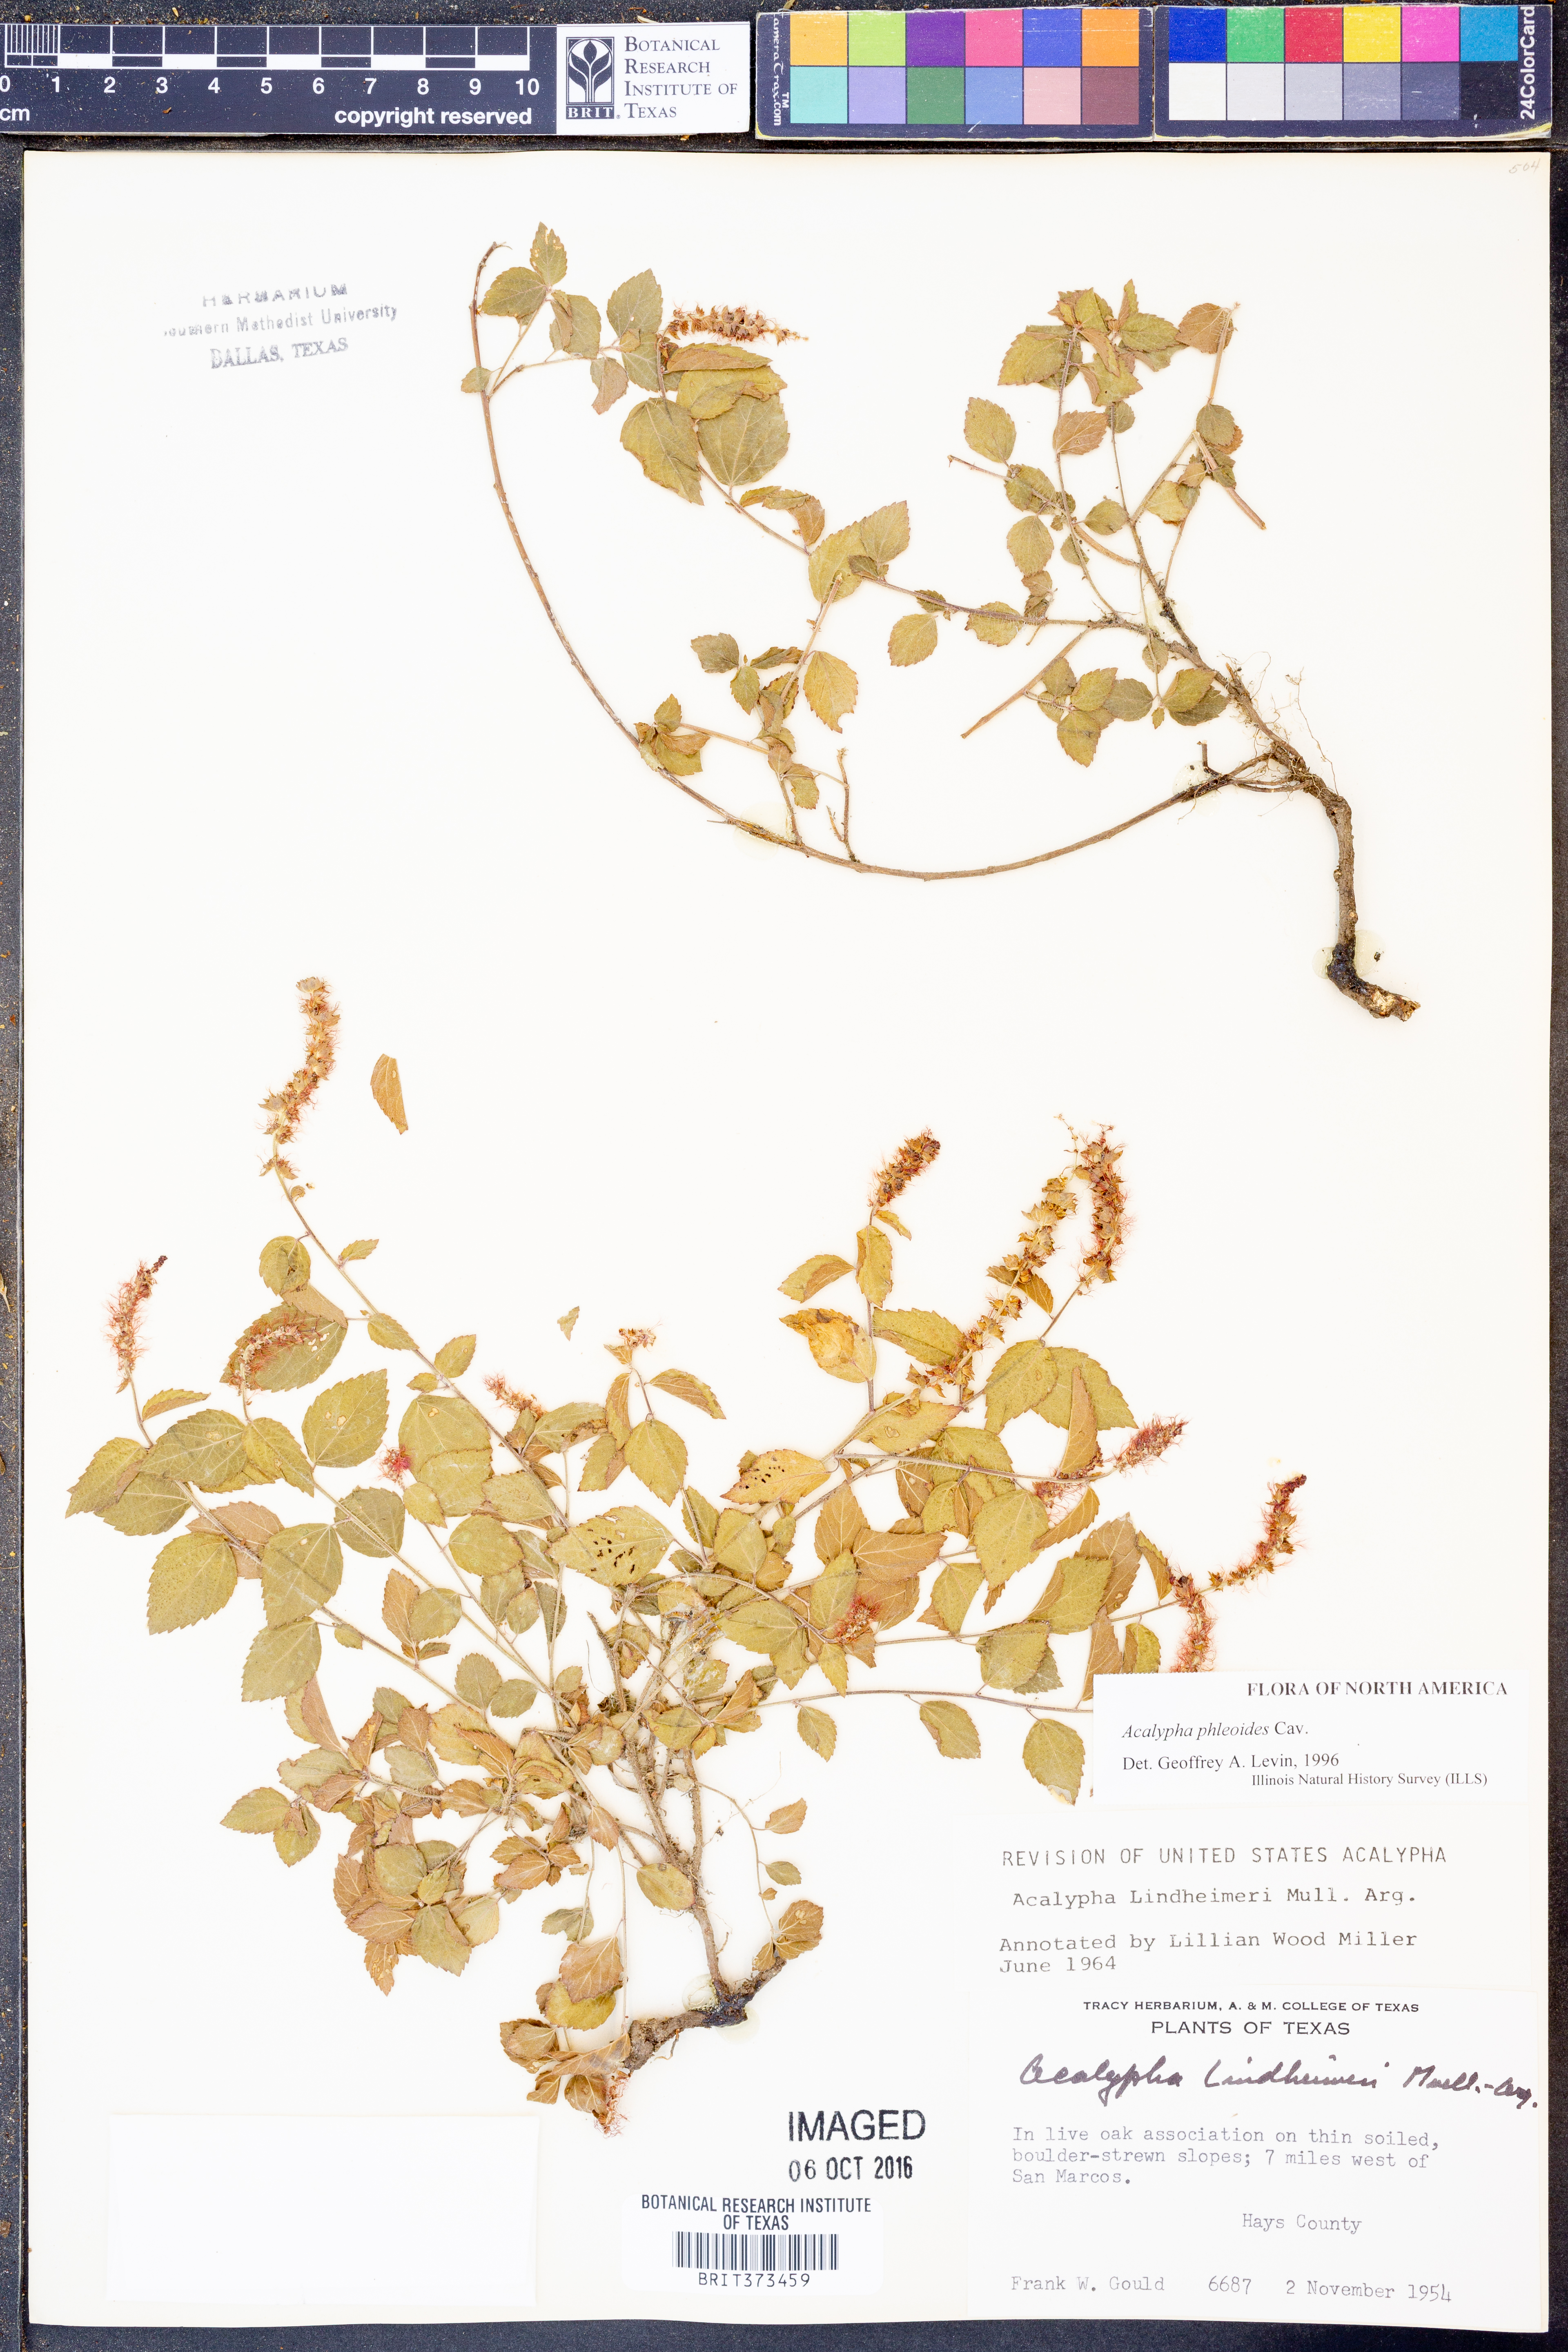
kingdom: Plantae
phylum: Tracheophyta
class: Magnoliopsida
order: Malpighiales
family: Euphorbiaceae
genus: Acalypha
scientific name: Acalypha phleoides
